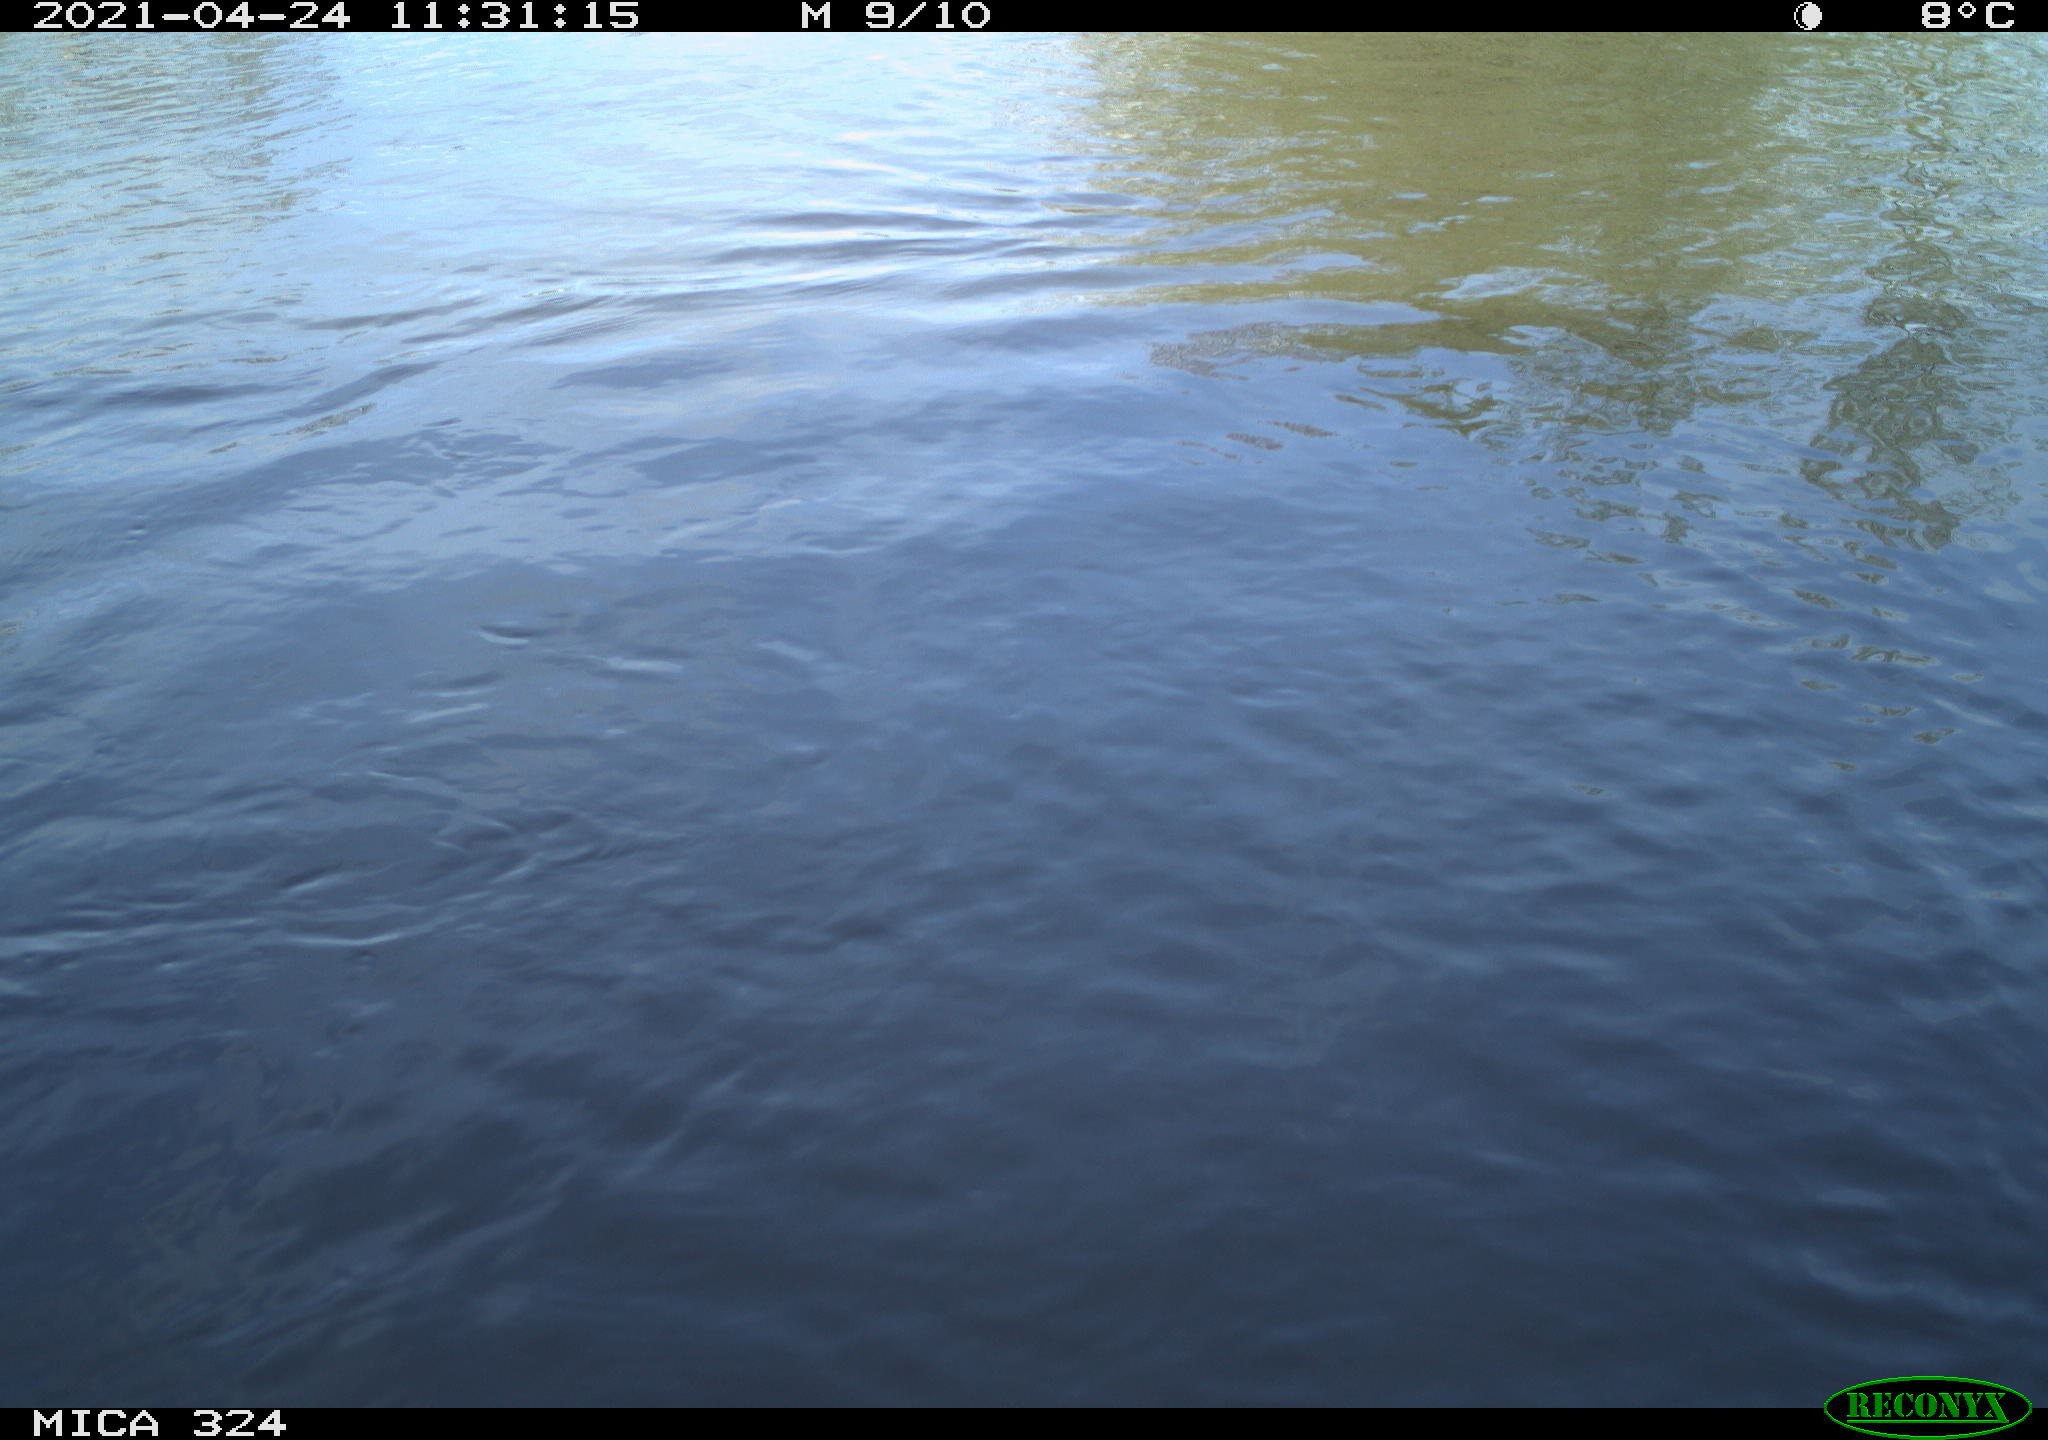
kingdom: Animalia
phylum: Chordata
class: Aves
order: Gruiformes
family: Rallidae
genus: Gallinula
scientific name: Gallinula chloropus
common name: Common moorhen
